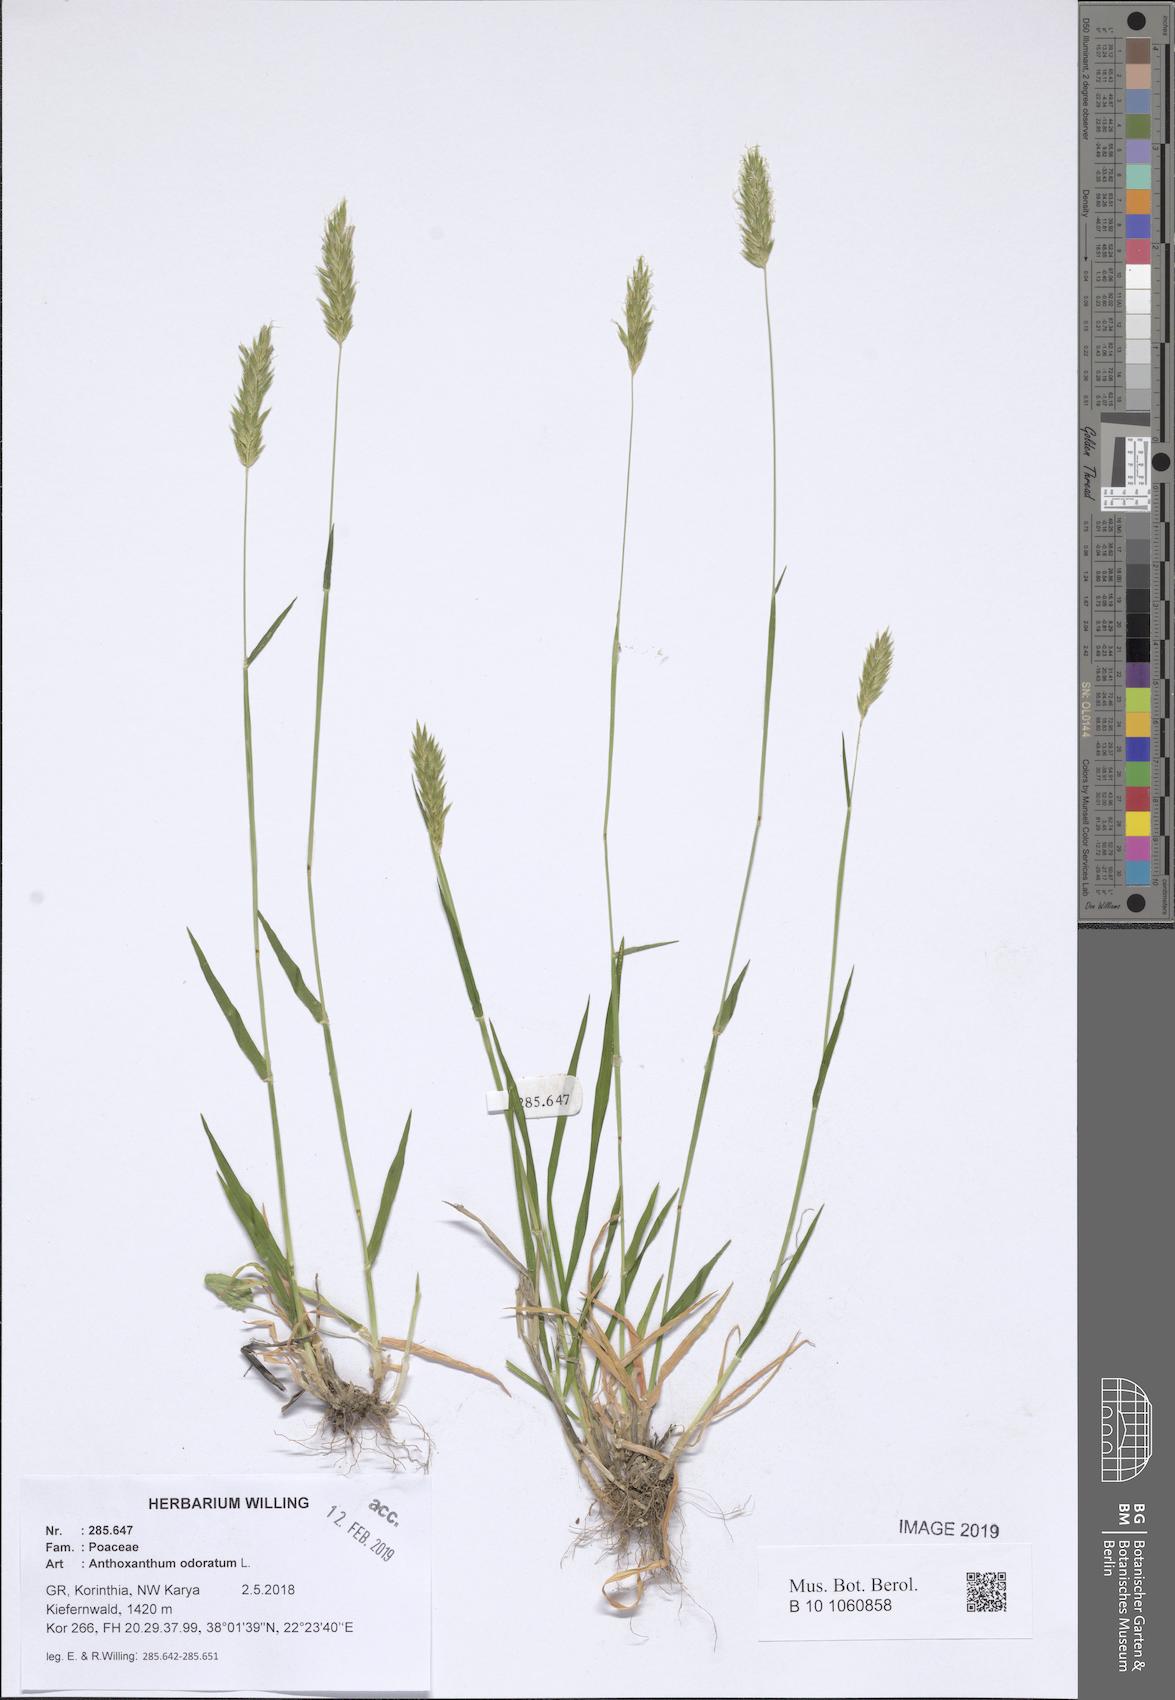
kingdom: Plantae
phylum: Tracheophyta
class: Liliopsida
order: Poales
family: Poaceae
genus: Anthoxanthum
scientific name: Anthoxanthum odoratum
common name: Sweet vernalgrass
